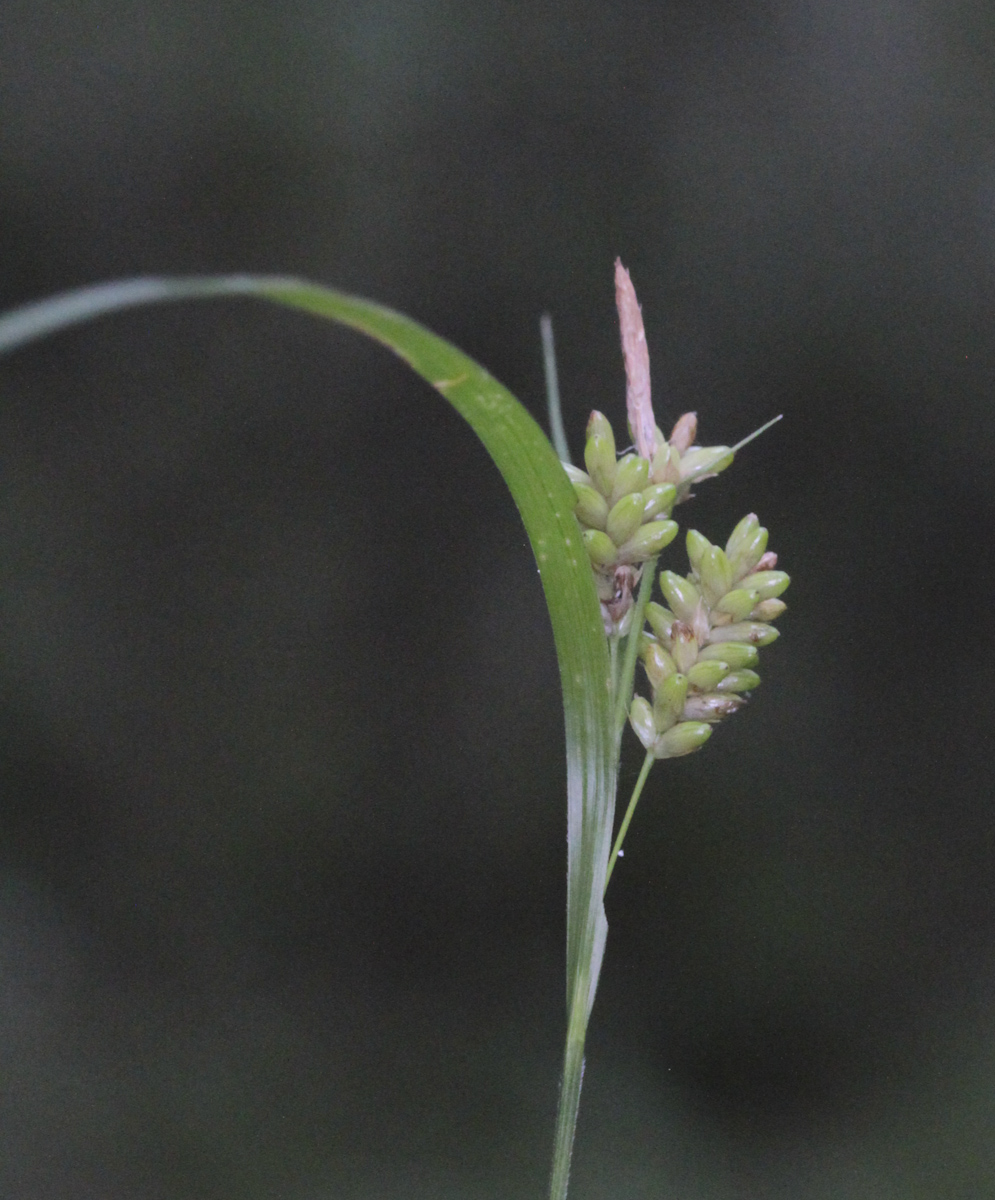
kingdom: Plantae
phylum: Tracheophyta
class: Liliopsida
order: Poales
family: Cyperaceae
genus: Carex
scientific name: Carex pallescens
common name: Pale sedge
